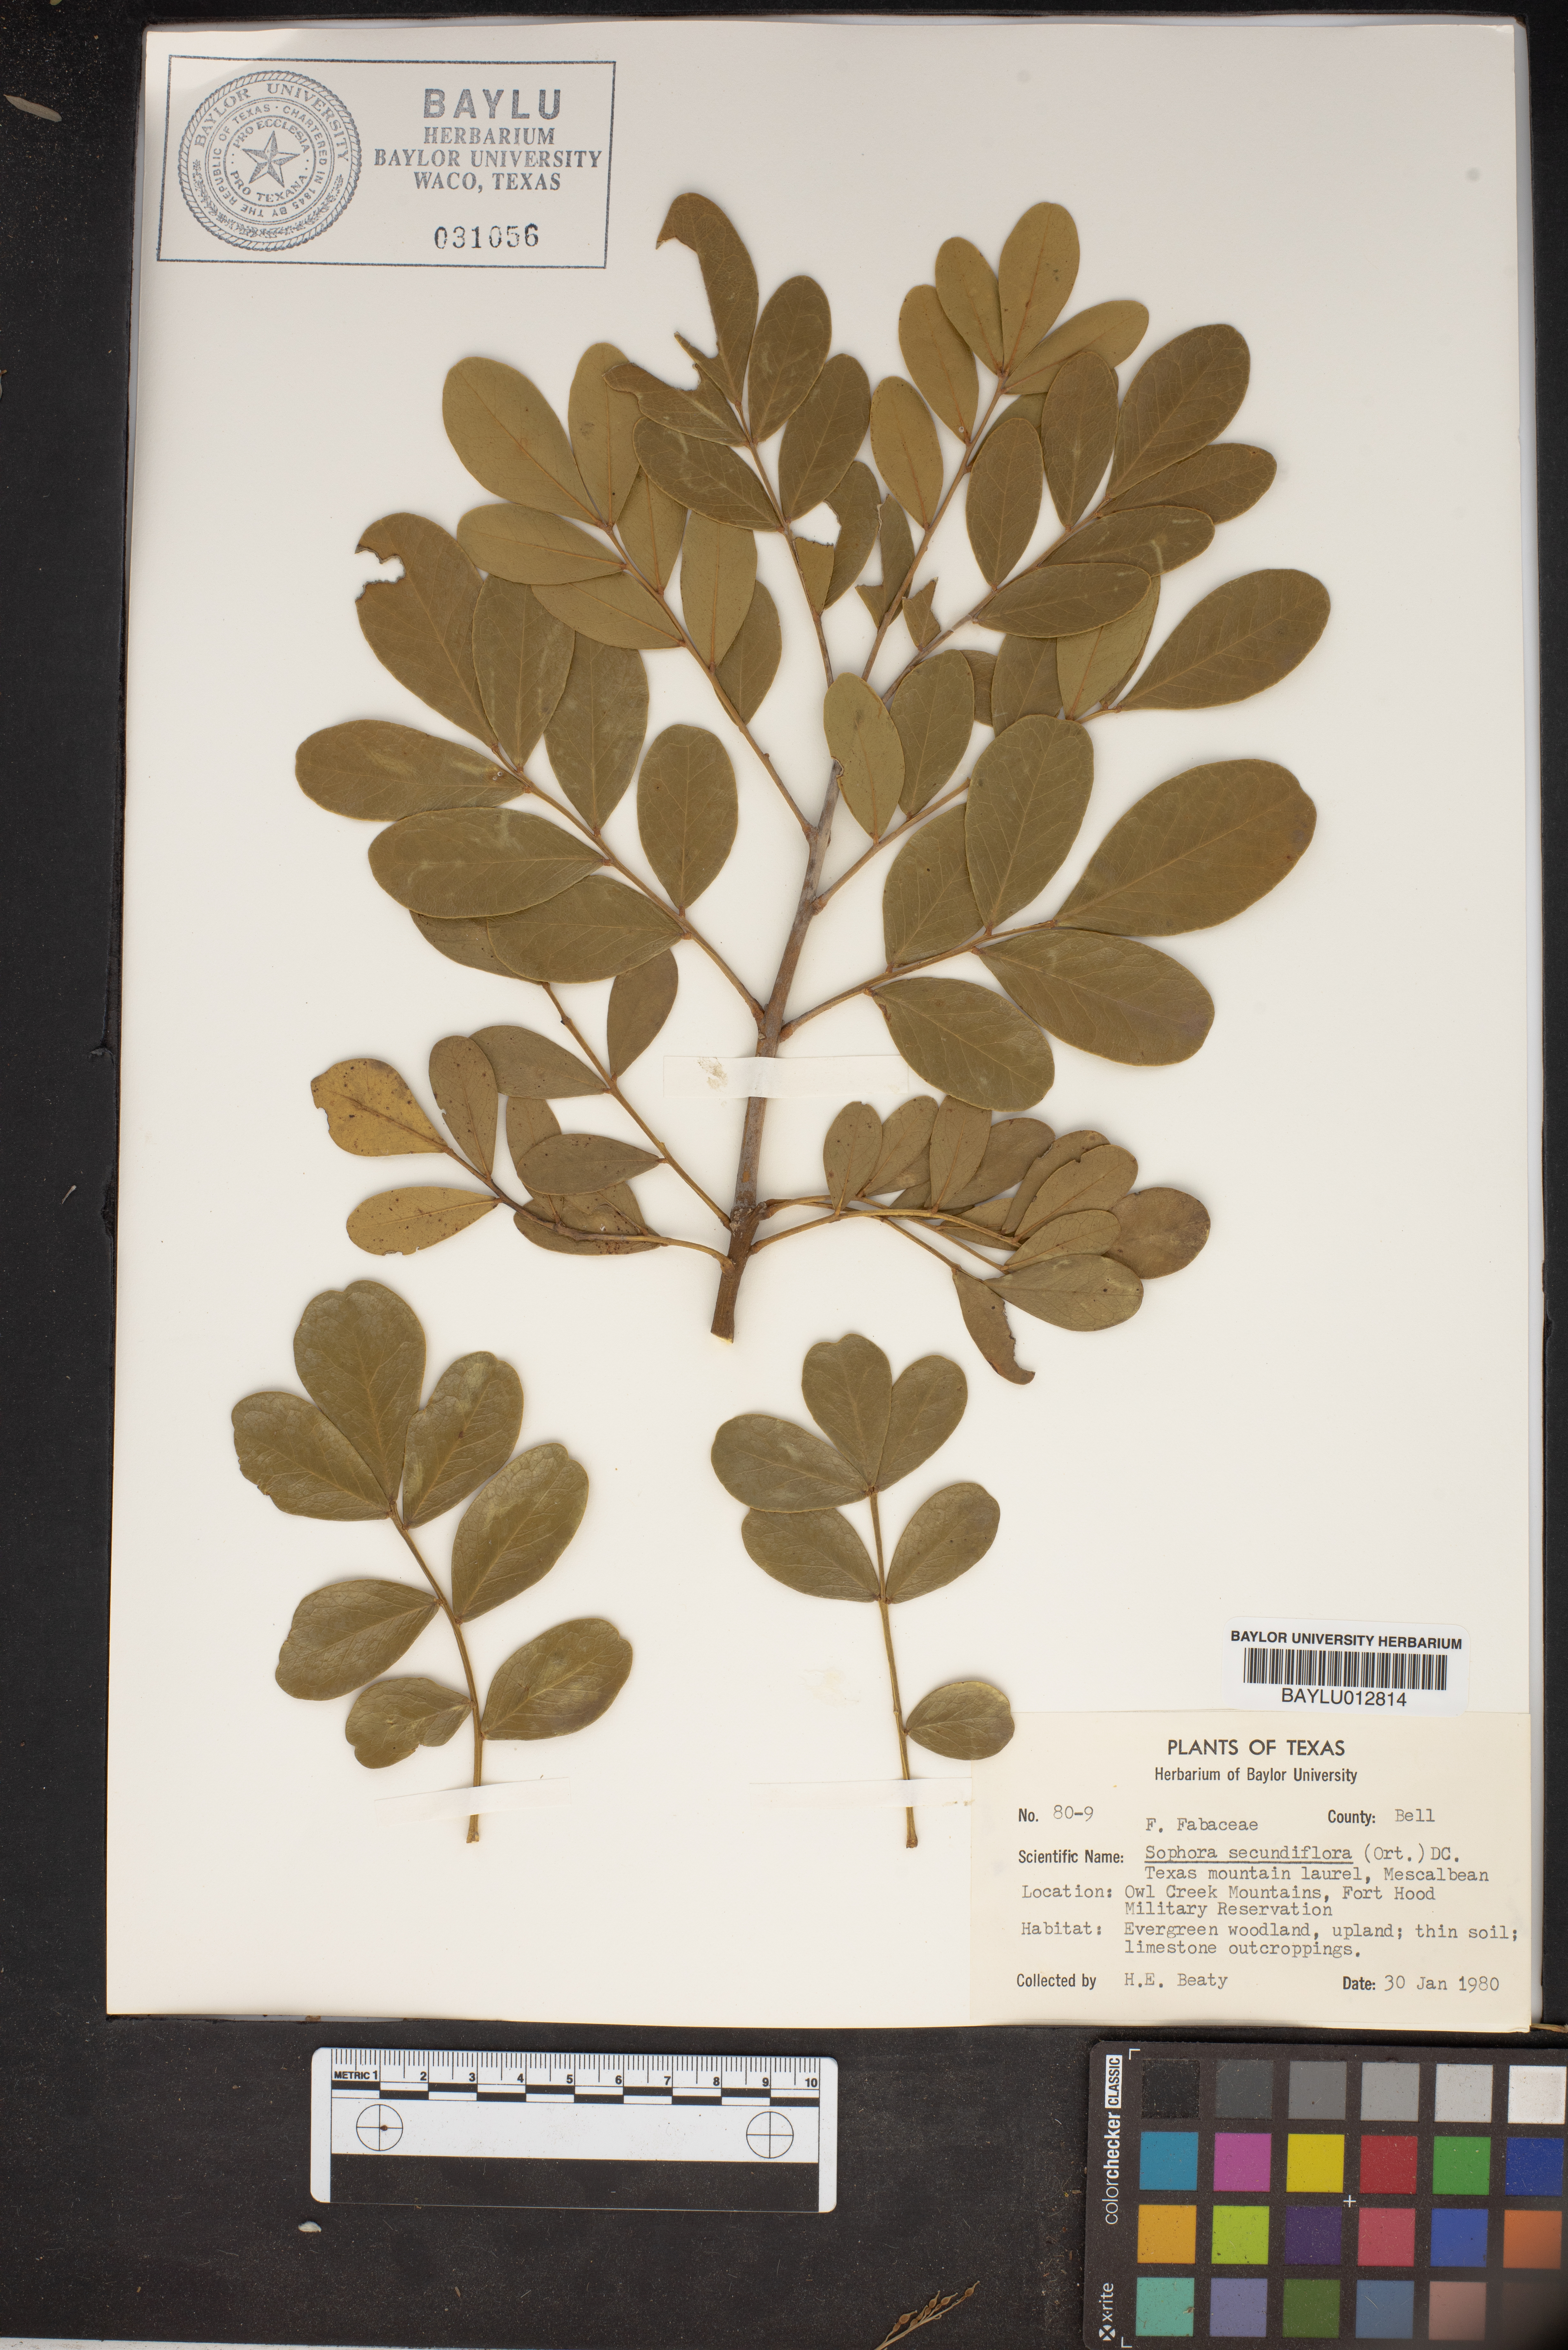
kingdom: Plantae
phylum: Tracheophyta
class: Magnoliopsida
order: Fabales
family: Fabaceae
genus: Dermatophyllum
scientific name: Dermatophyllum secundiflorum
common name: Texas-mountain-laurel
